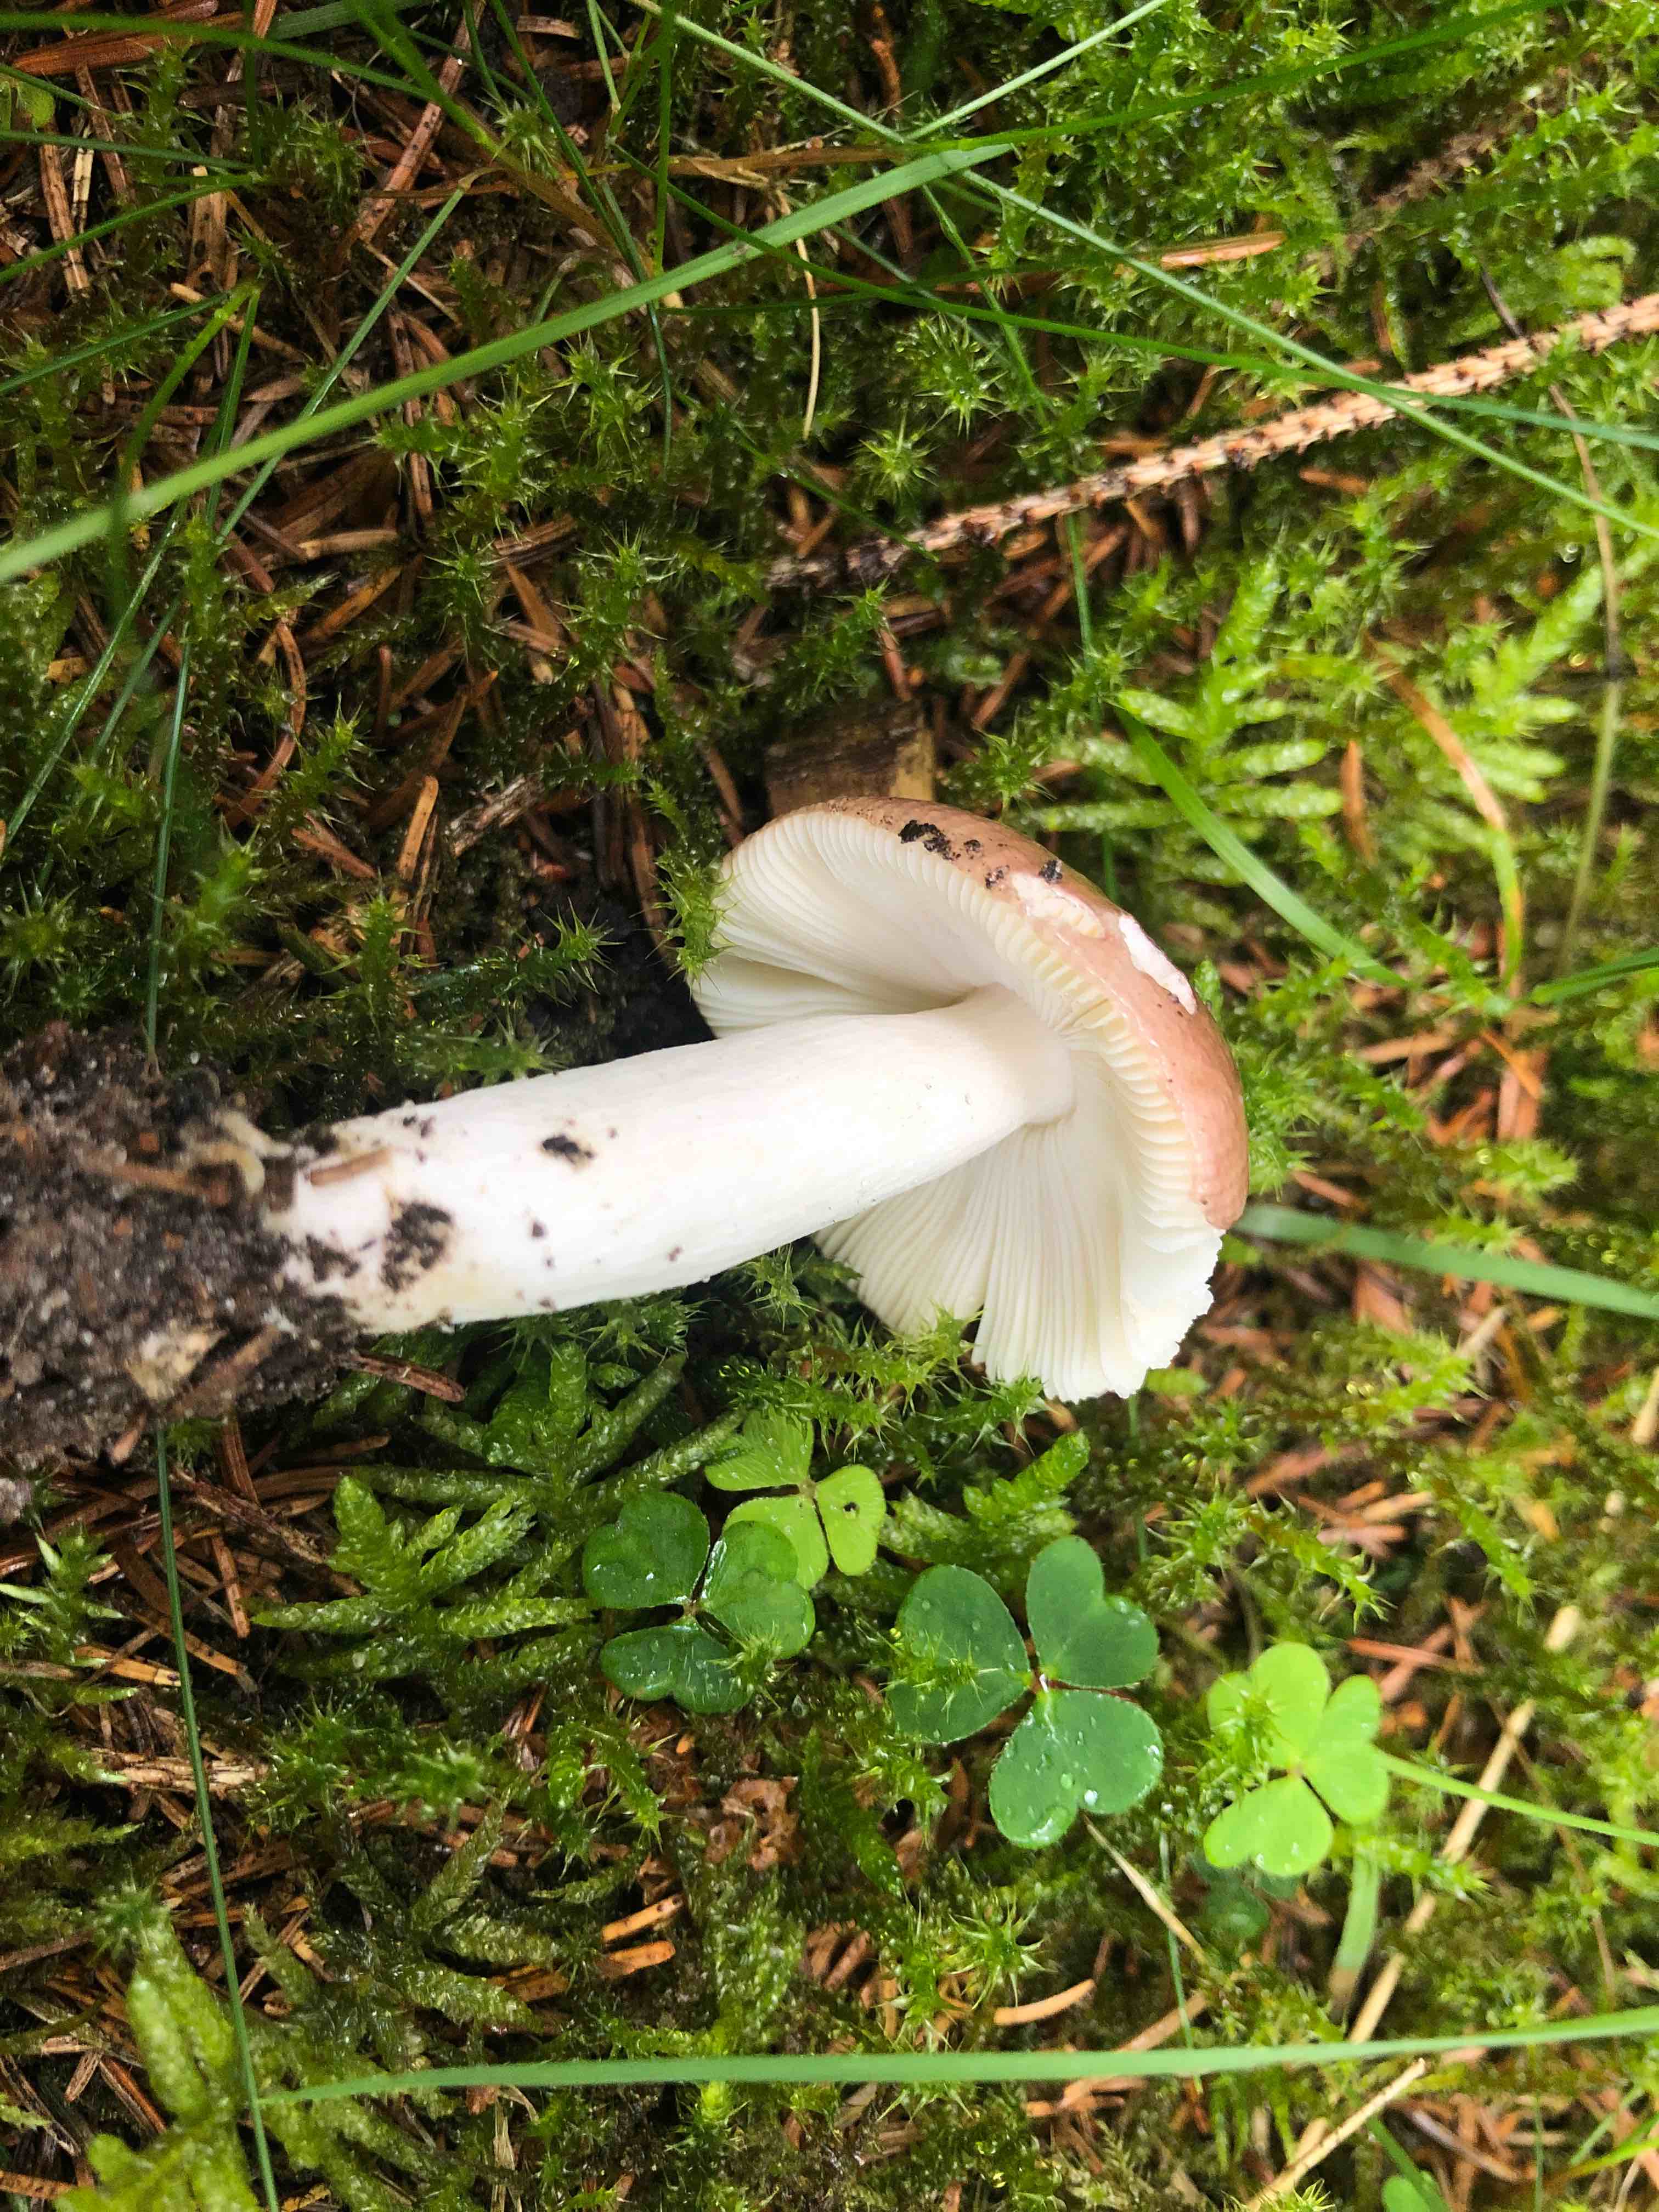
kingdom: Fungi
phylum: Basidiomycota
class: Agaricomycetes
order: Russulales
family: Russulaceae
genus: Russula
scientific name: Russula nauseosa
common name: spinkel skørhat
